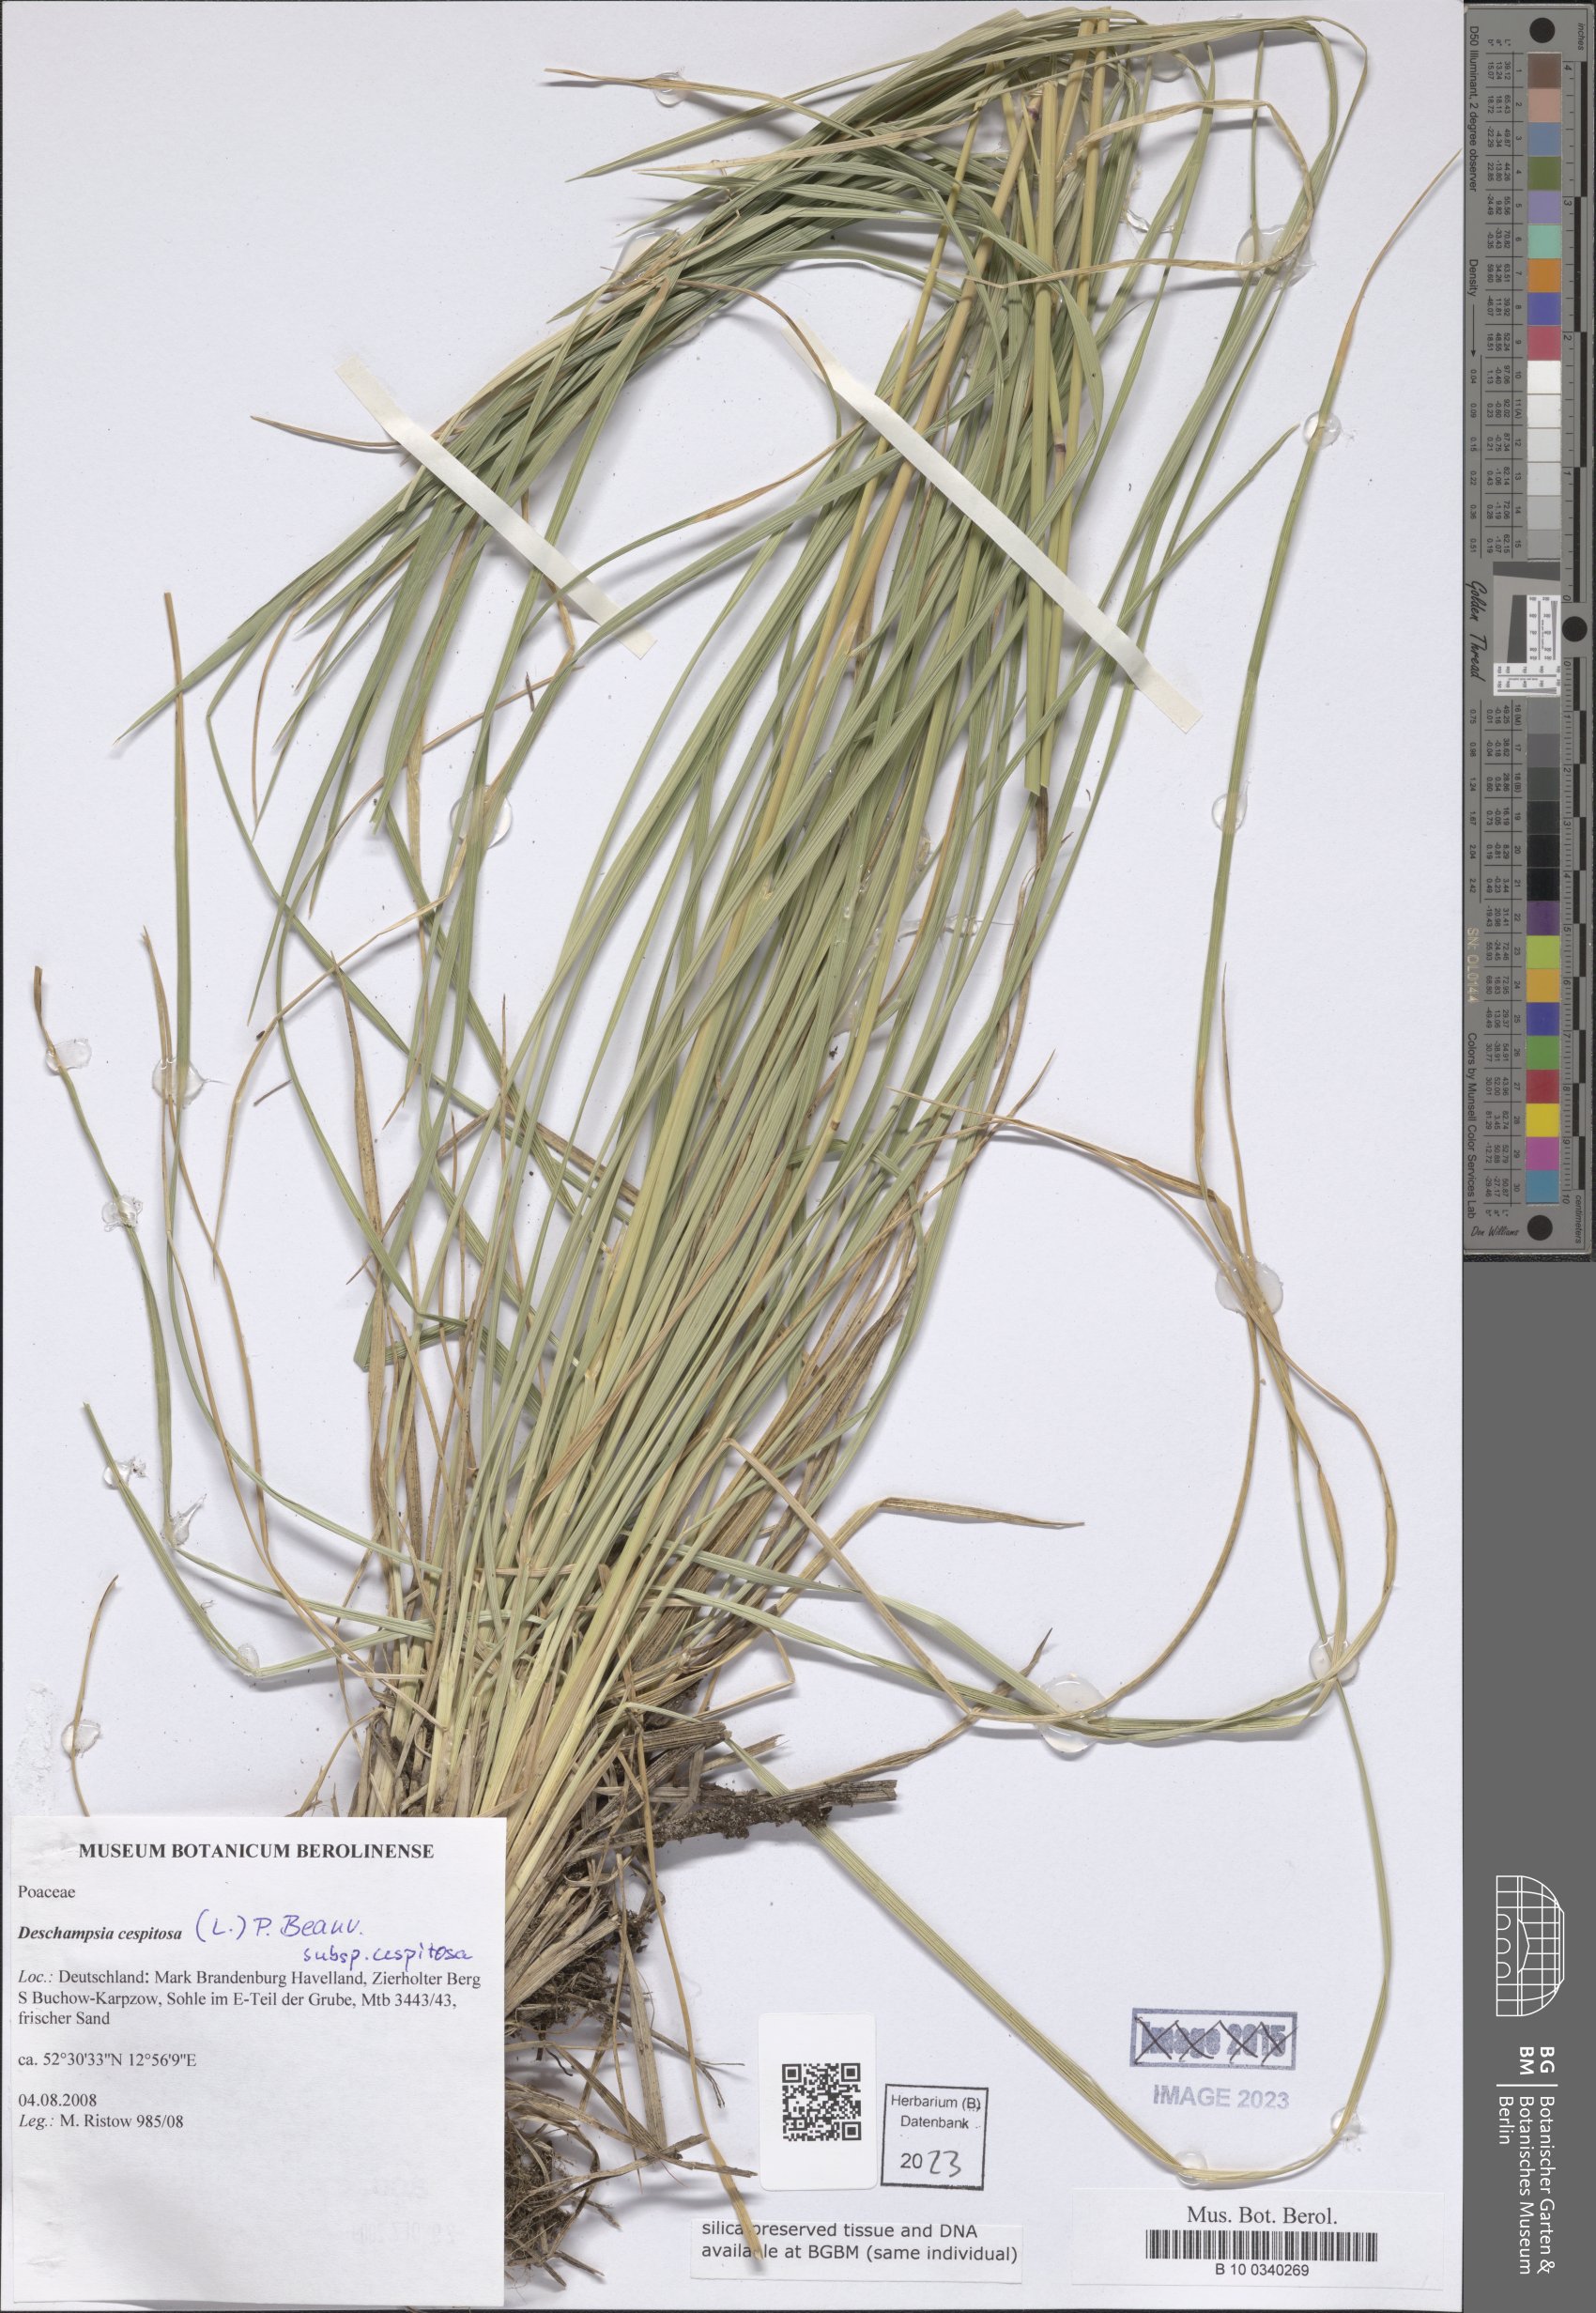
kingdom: Plantae
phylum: Tracheophyta
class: Liliopsida
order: Poales
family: Poaceae
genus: Deschampsia
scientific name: Deschampsia cespitosa
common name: Tufted hair-grass
